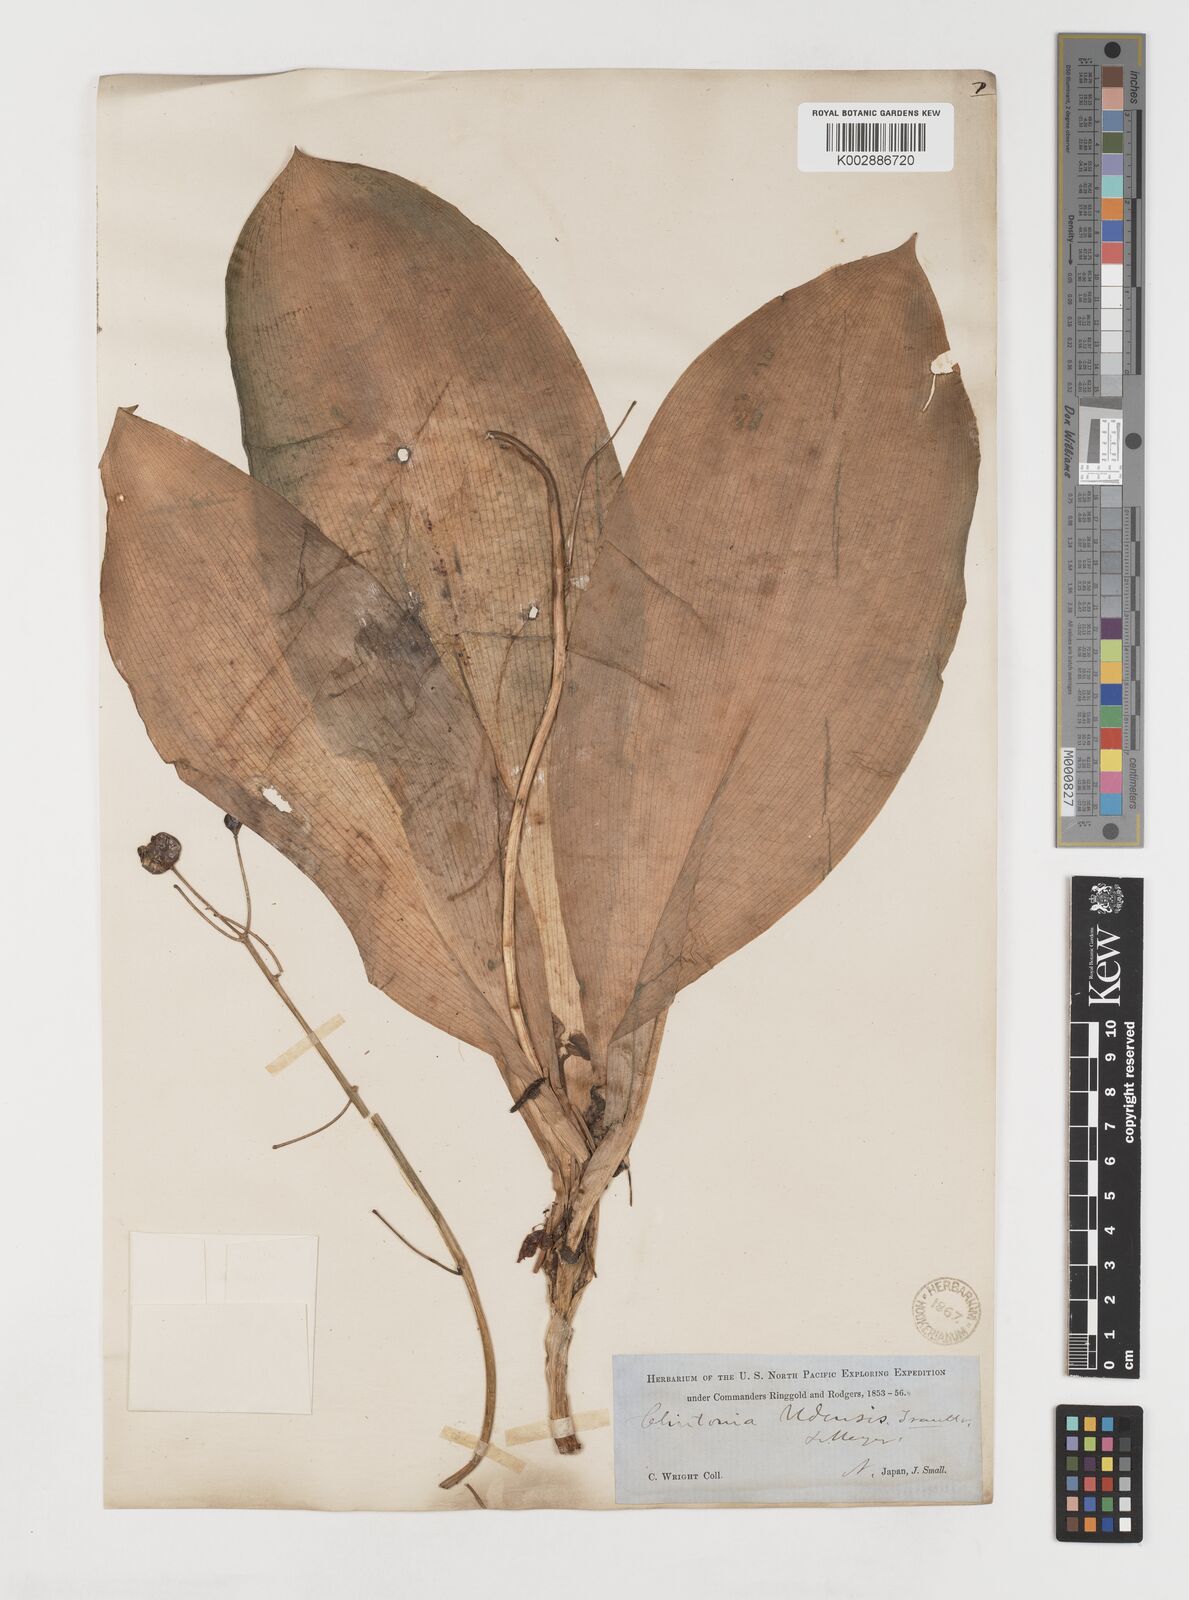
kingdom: Plantae
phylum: Tracheophyta
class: Liliopsida
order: Liliales
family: Liliaceae
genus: Clintonia
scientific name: Clintonia udensis
